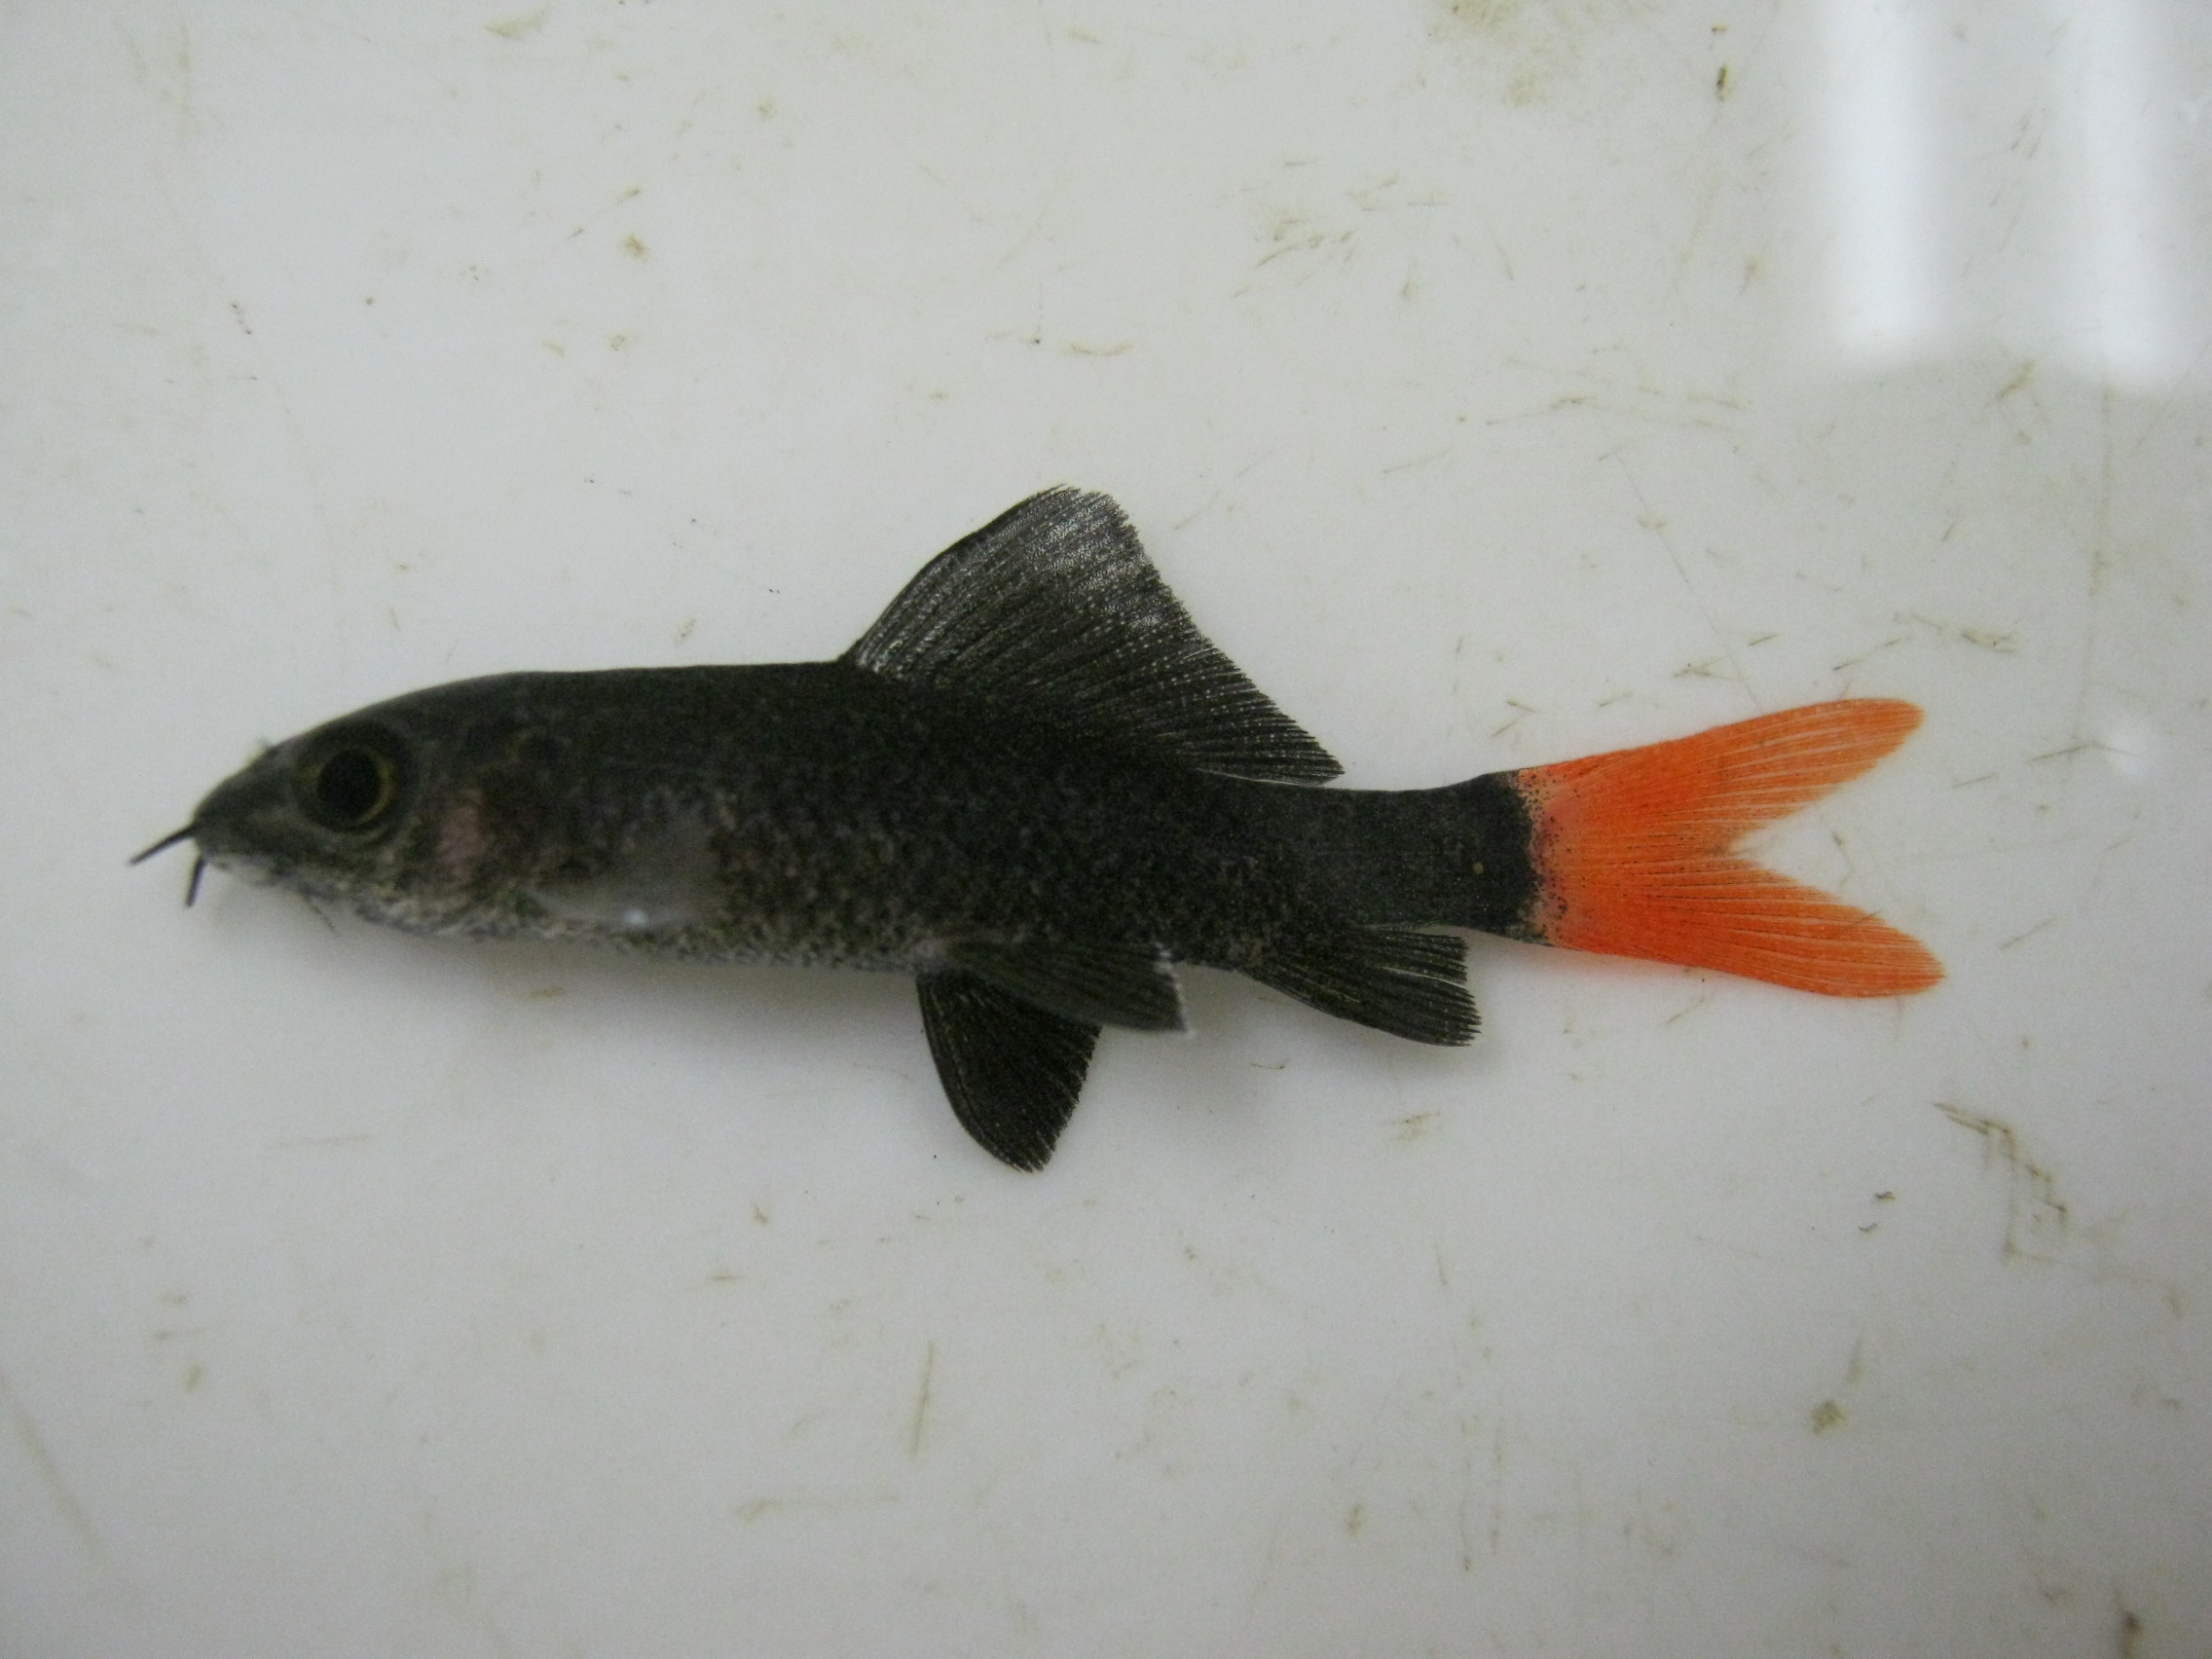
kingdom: Animalia
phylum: Chordata
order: Cypriniformes
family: Cyprinidae
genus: Epalzeorhynchos
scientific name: Epalzeorhynchos bicolor
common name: Redtail shark
